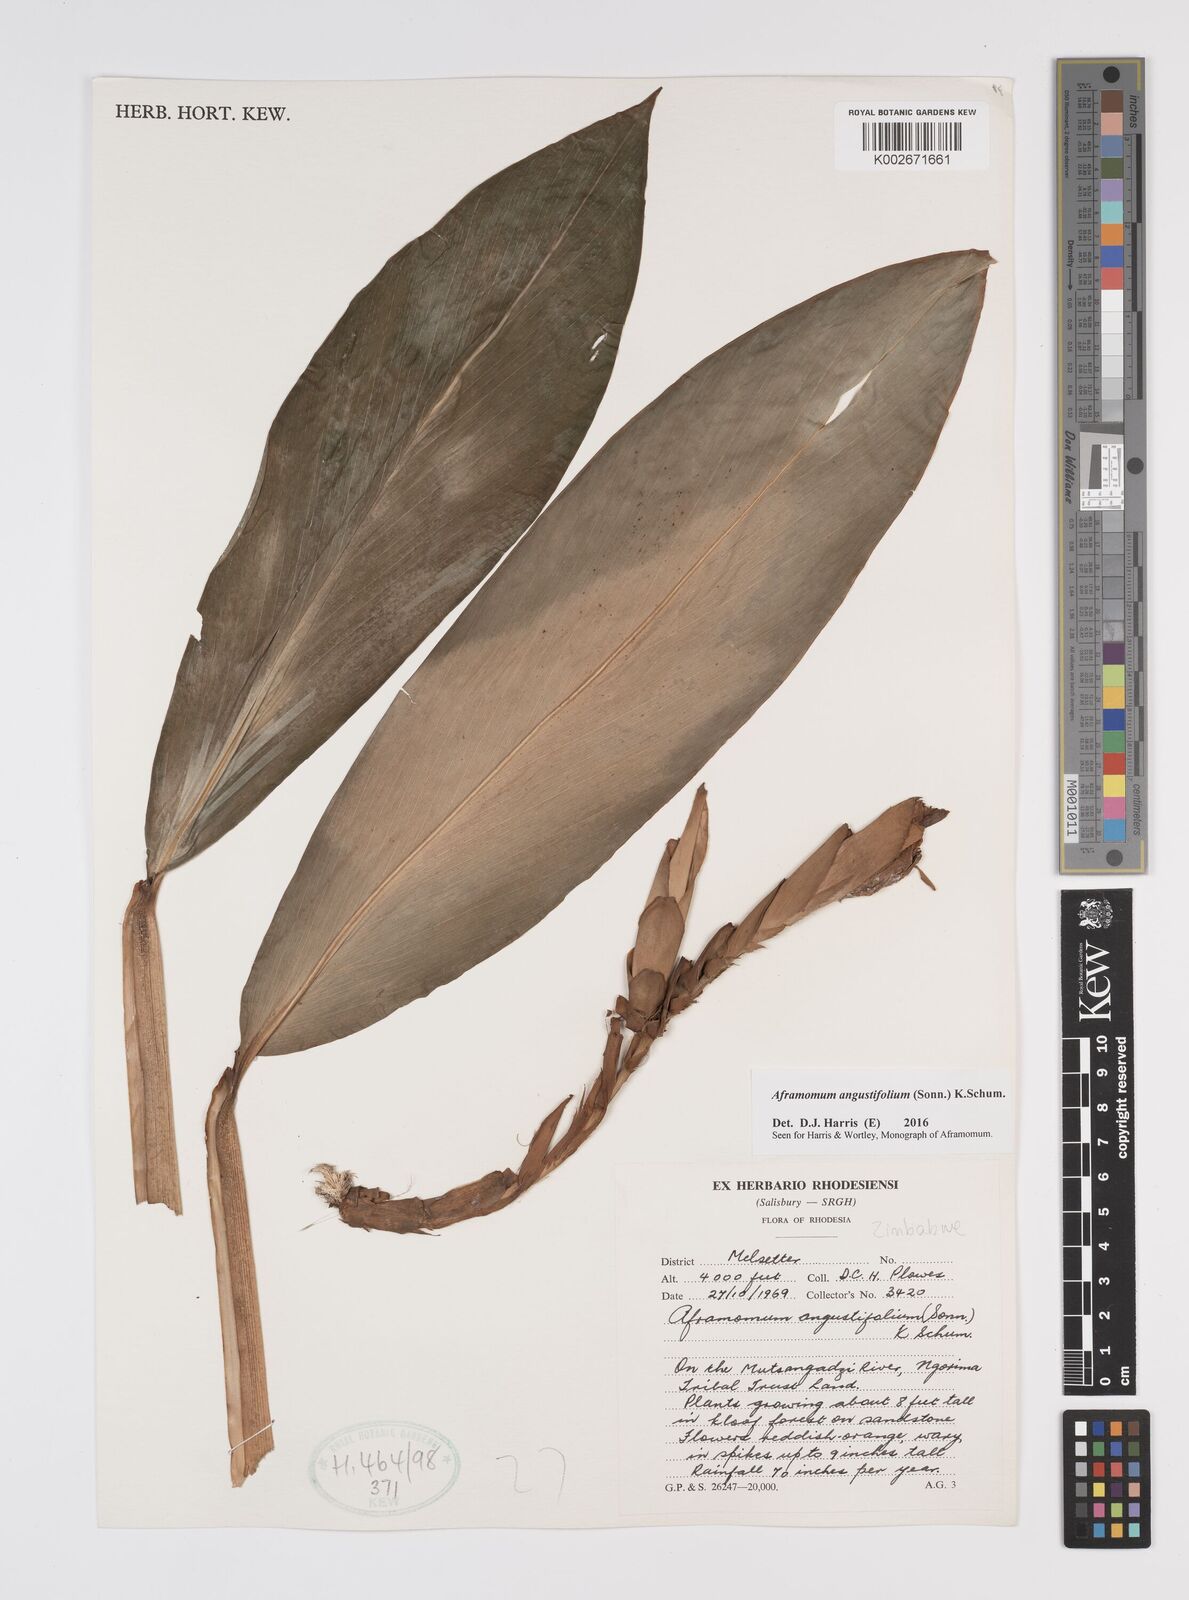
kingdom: Plantae
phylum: Tracheophyta
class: Liliopsida
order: Zingiberales
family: Zingiberaceae
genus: Aframomum
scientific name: Aframomum
